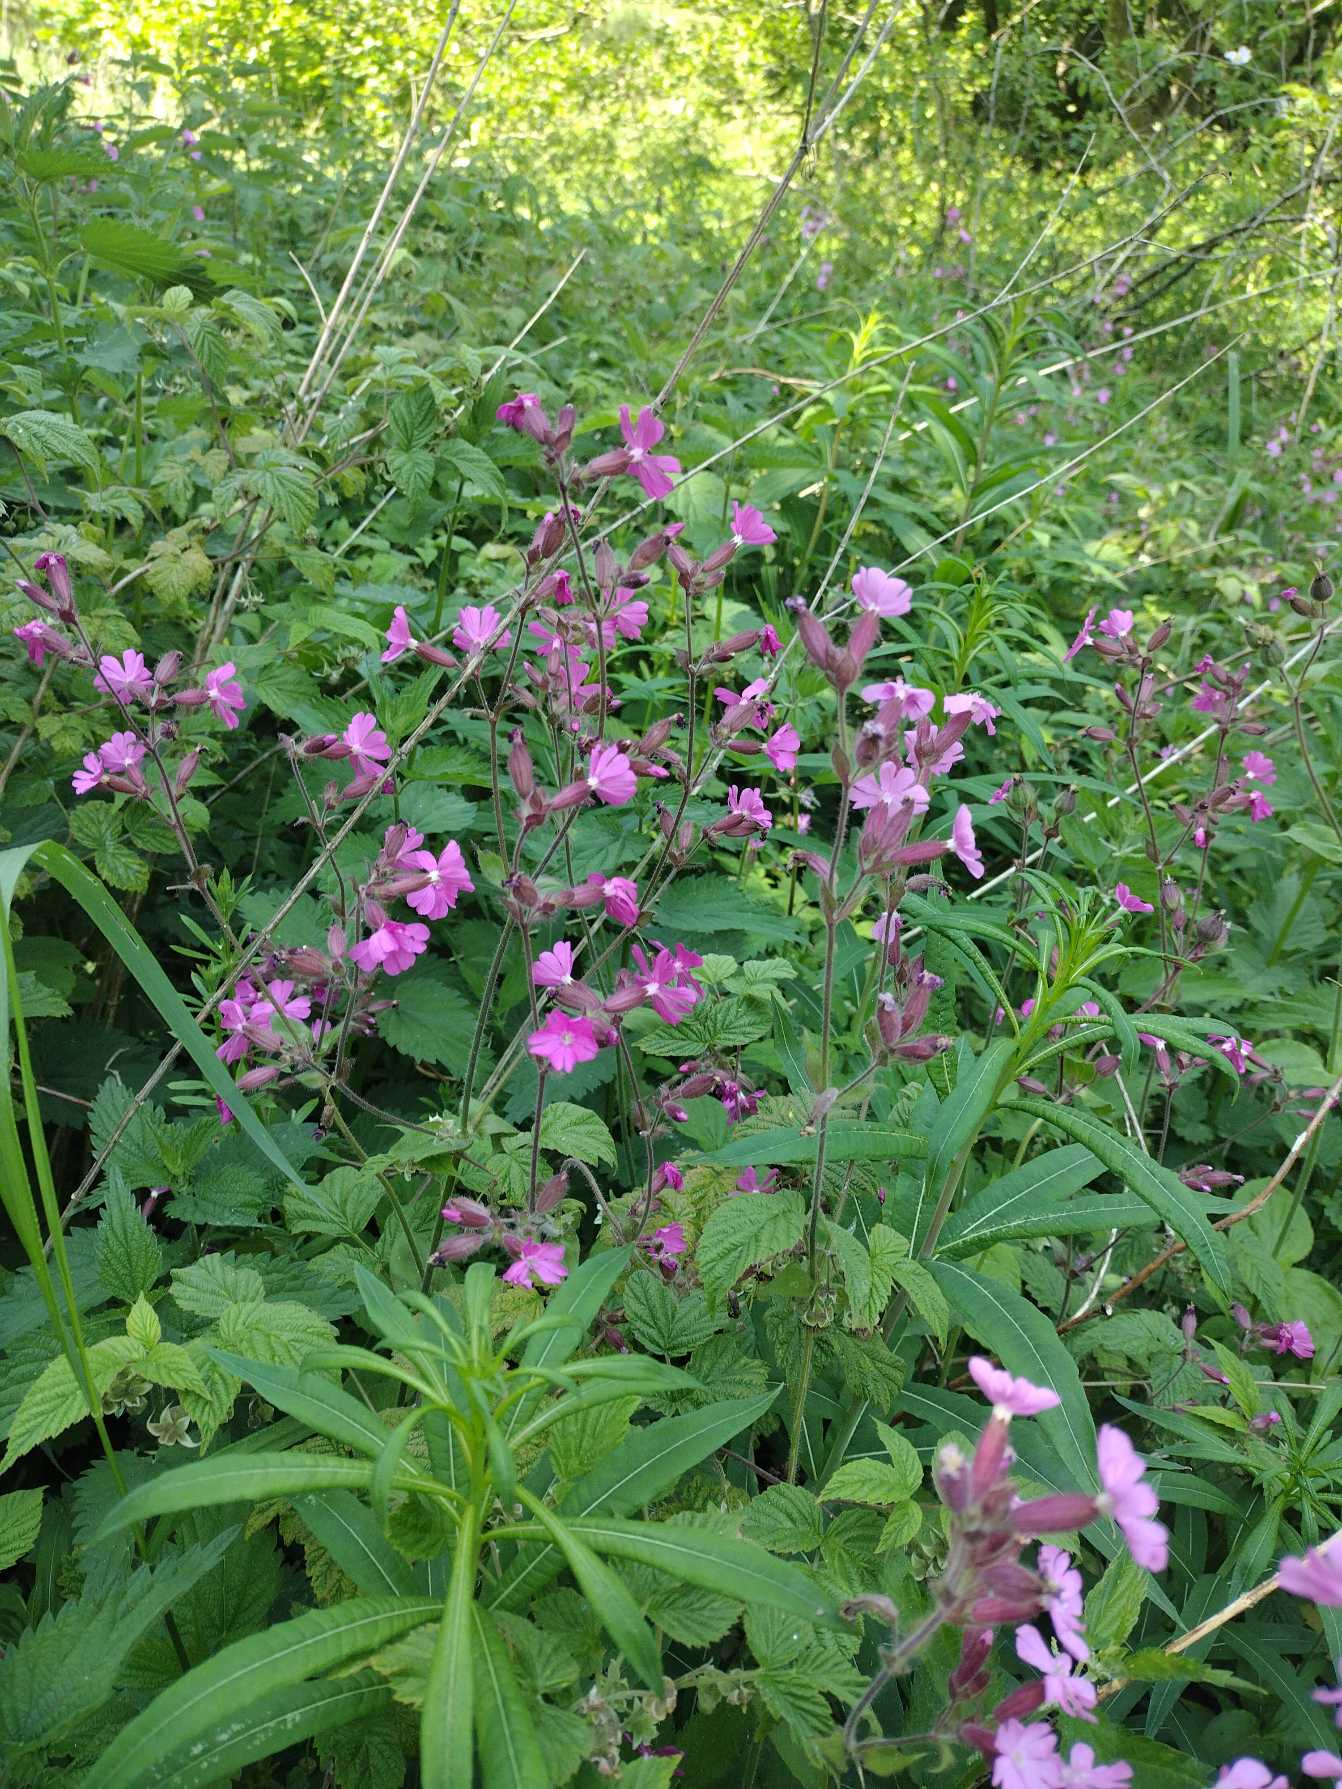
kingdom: Plantae
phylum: Tracheophyta
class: Magnoliopsida
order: Caryophyllales
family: Caryophyllaceae
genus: Silene
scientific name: Silene dioica
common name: Dagpragtstjerne
